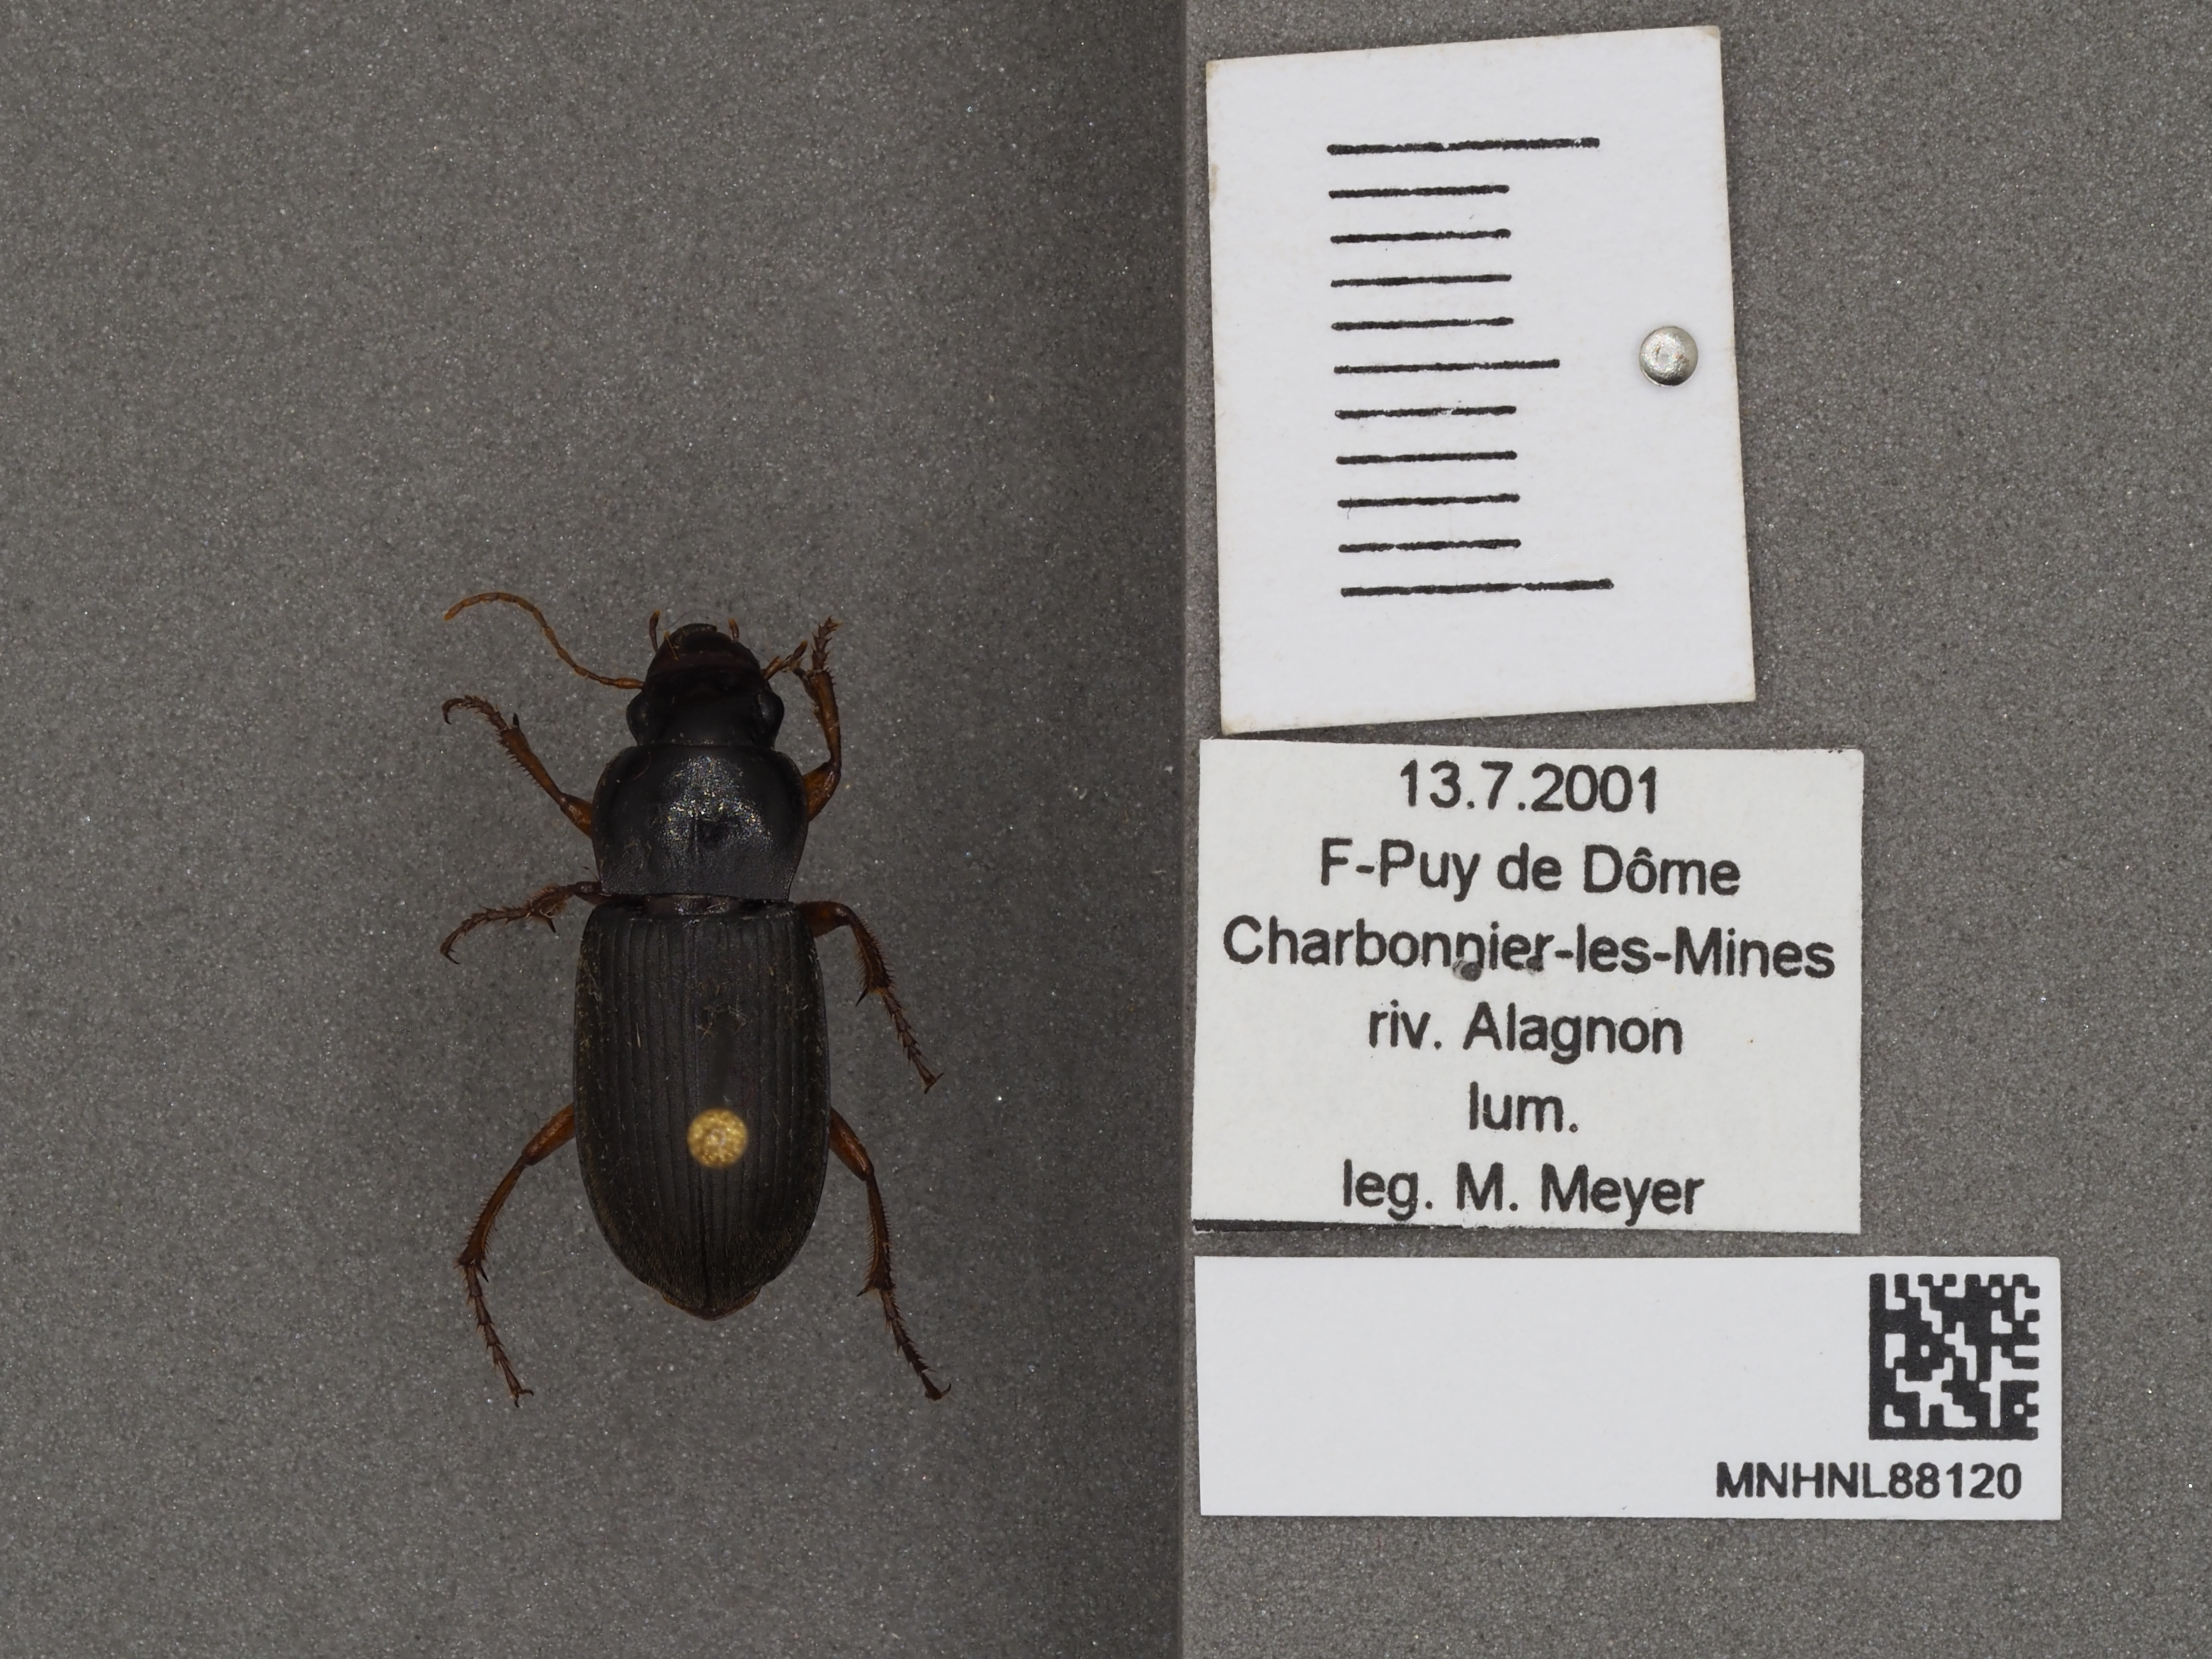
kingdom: Animalia
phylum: Arthropoda
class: Insecta
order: Coleoptera
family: Carabidae
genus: Harpalus
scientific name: Harpalus rufipes
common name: Strawberry harp ground beetle
